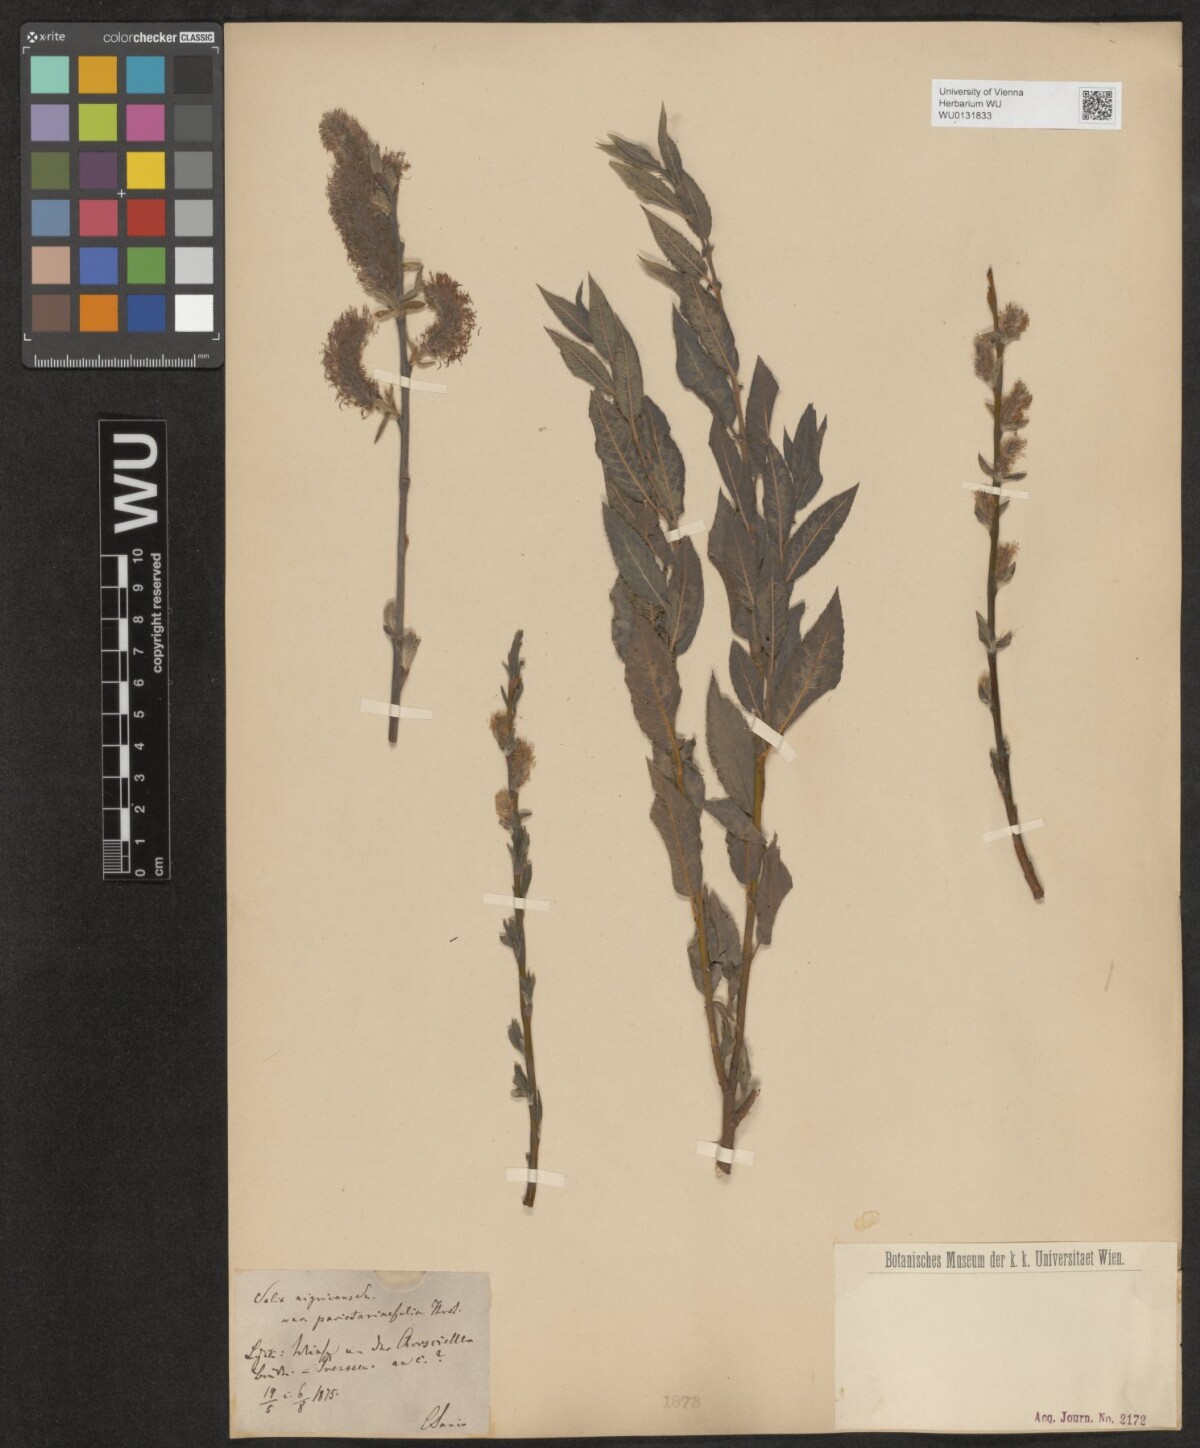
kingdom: Plantae
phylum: Tracheophyta
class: Magnoliopsida
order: Malpighiales
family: Salicaceae
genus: Salix
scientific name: Salix myrsinifolia
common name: Dark-leaved willow
